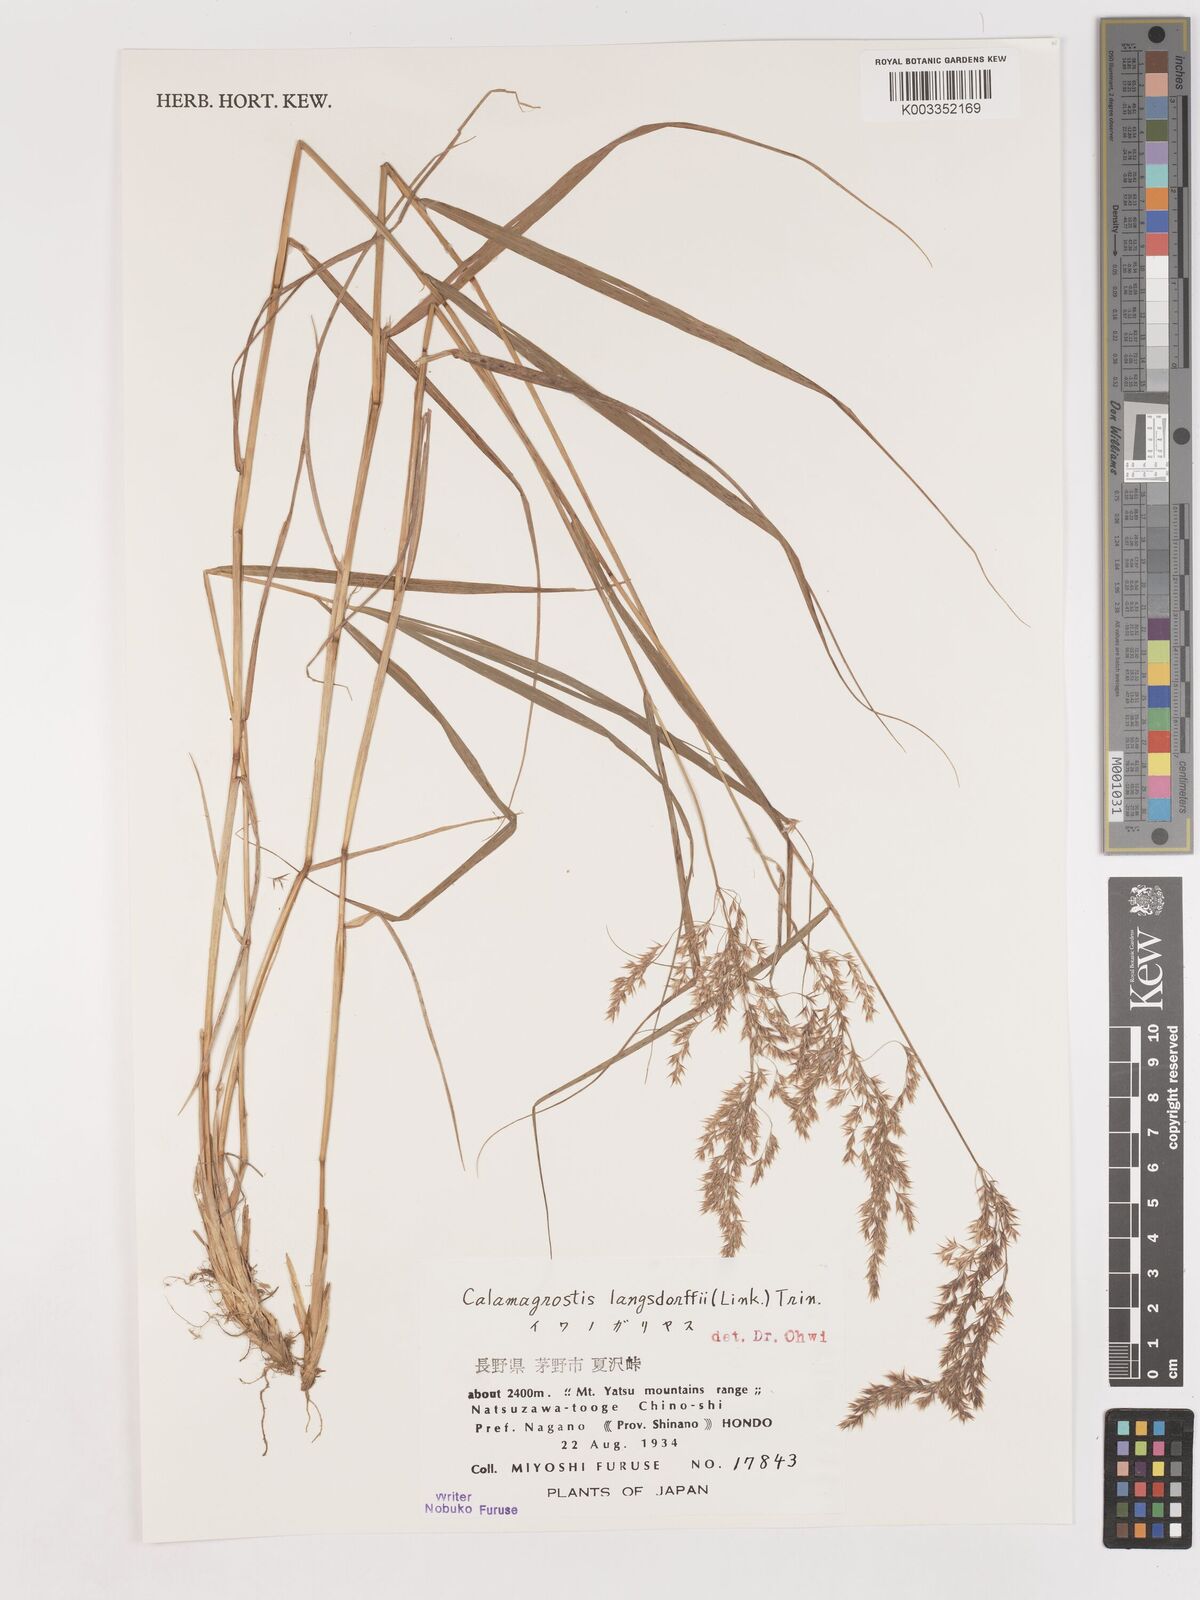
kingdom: Plantae
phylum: Tracheophyta
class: Liliopsida
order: Poales
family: Poaceae
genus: Calamagrostis
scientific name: Calamagrostis purpurea
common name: Scandinavian small-reed
